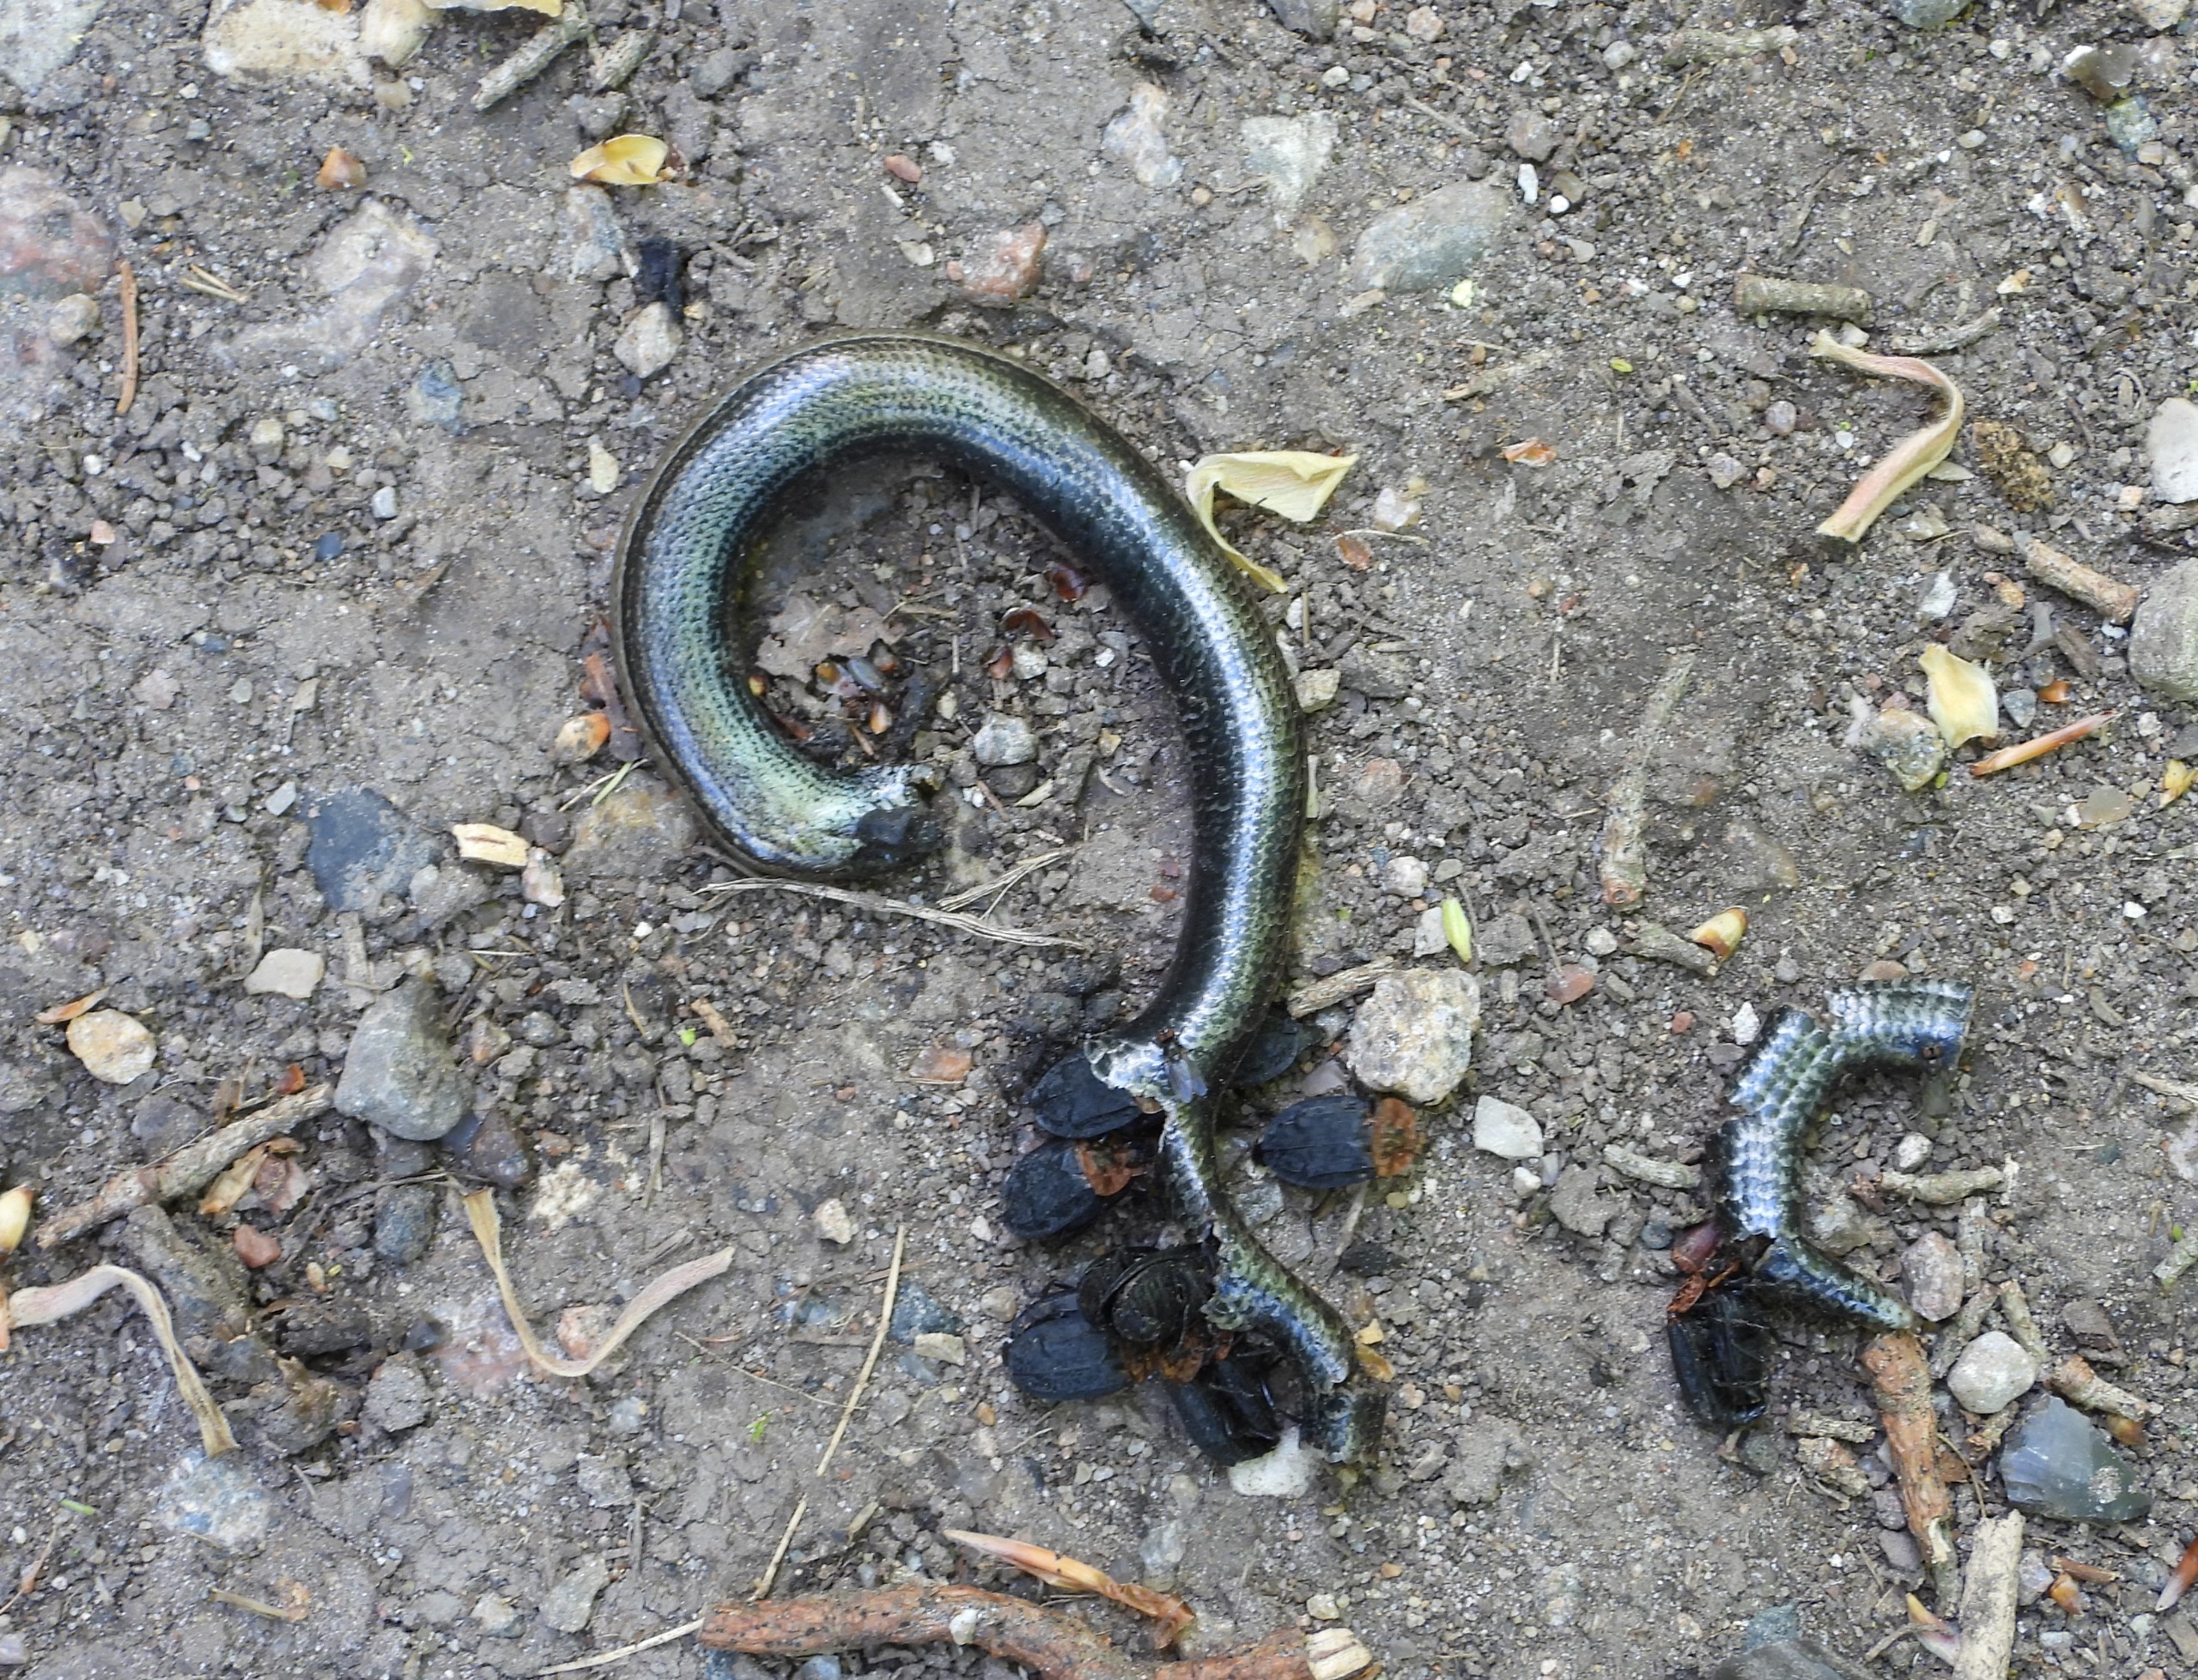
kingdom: Animalia
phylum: Chordata
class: Squamata
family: Anguidae
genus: Anguis
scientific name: Anguis fragilis
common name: Stålorm
